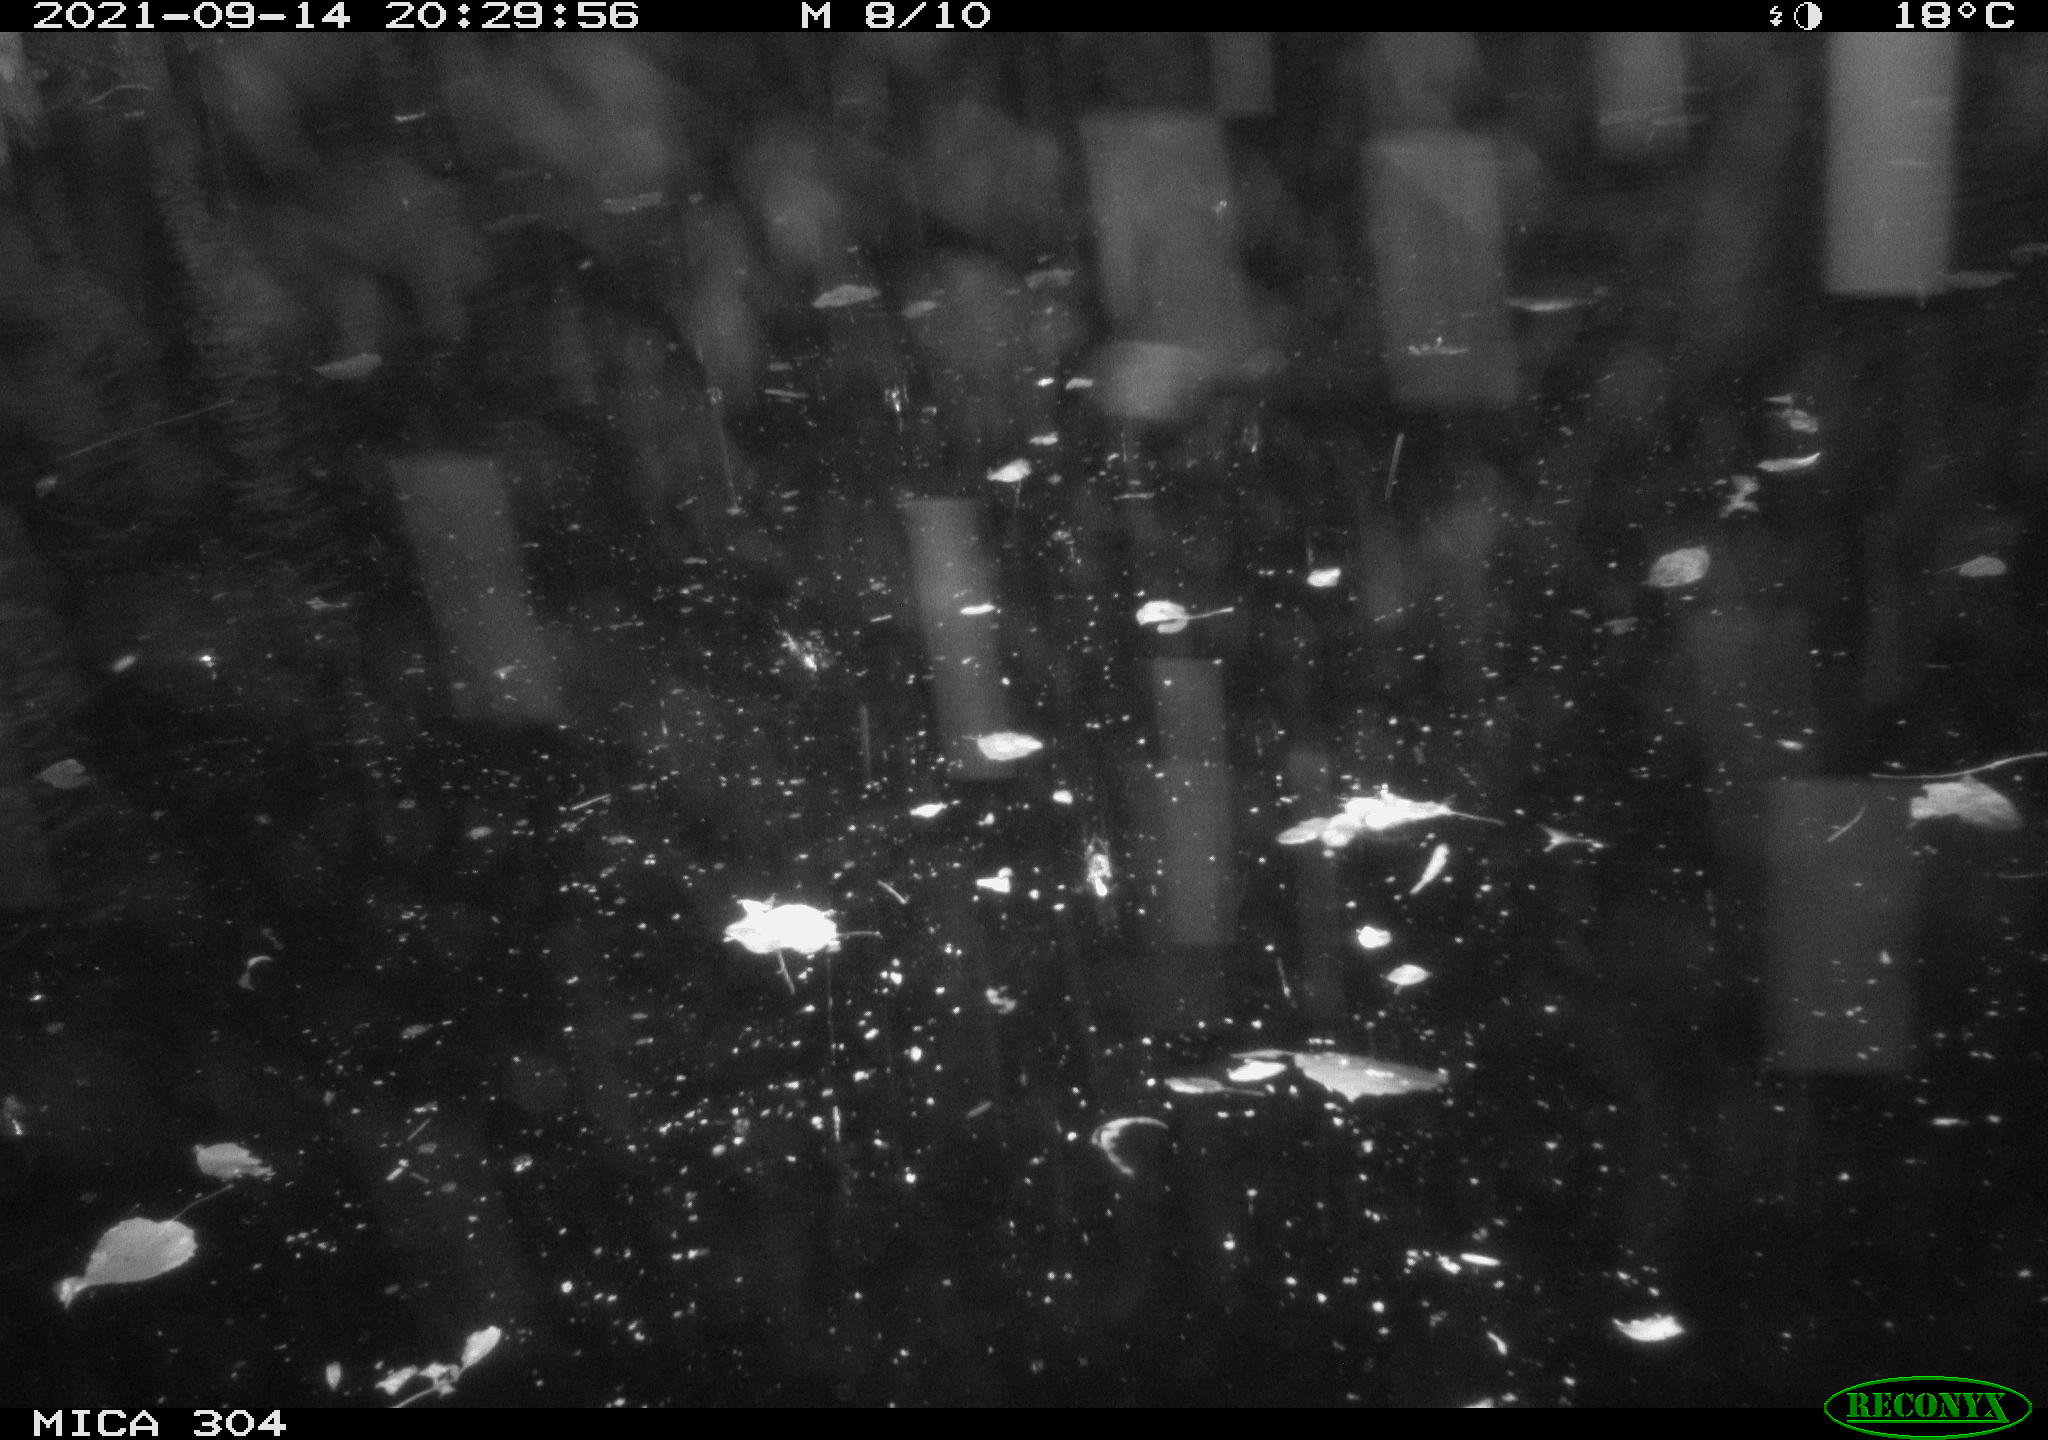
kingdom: Animalia
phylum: Chordata
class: Aves
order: Anseriformes
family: Anatidae
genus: Mareca
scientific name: Mareca strepera
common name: Gadwall
